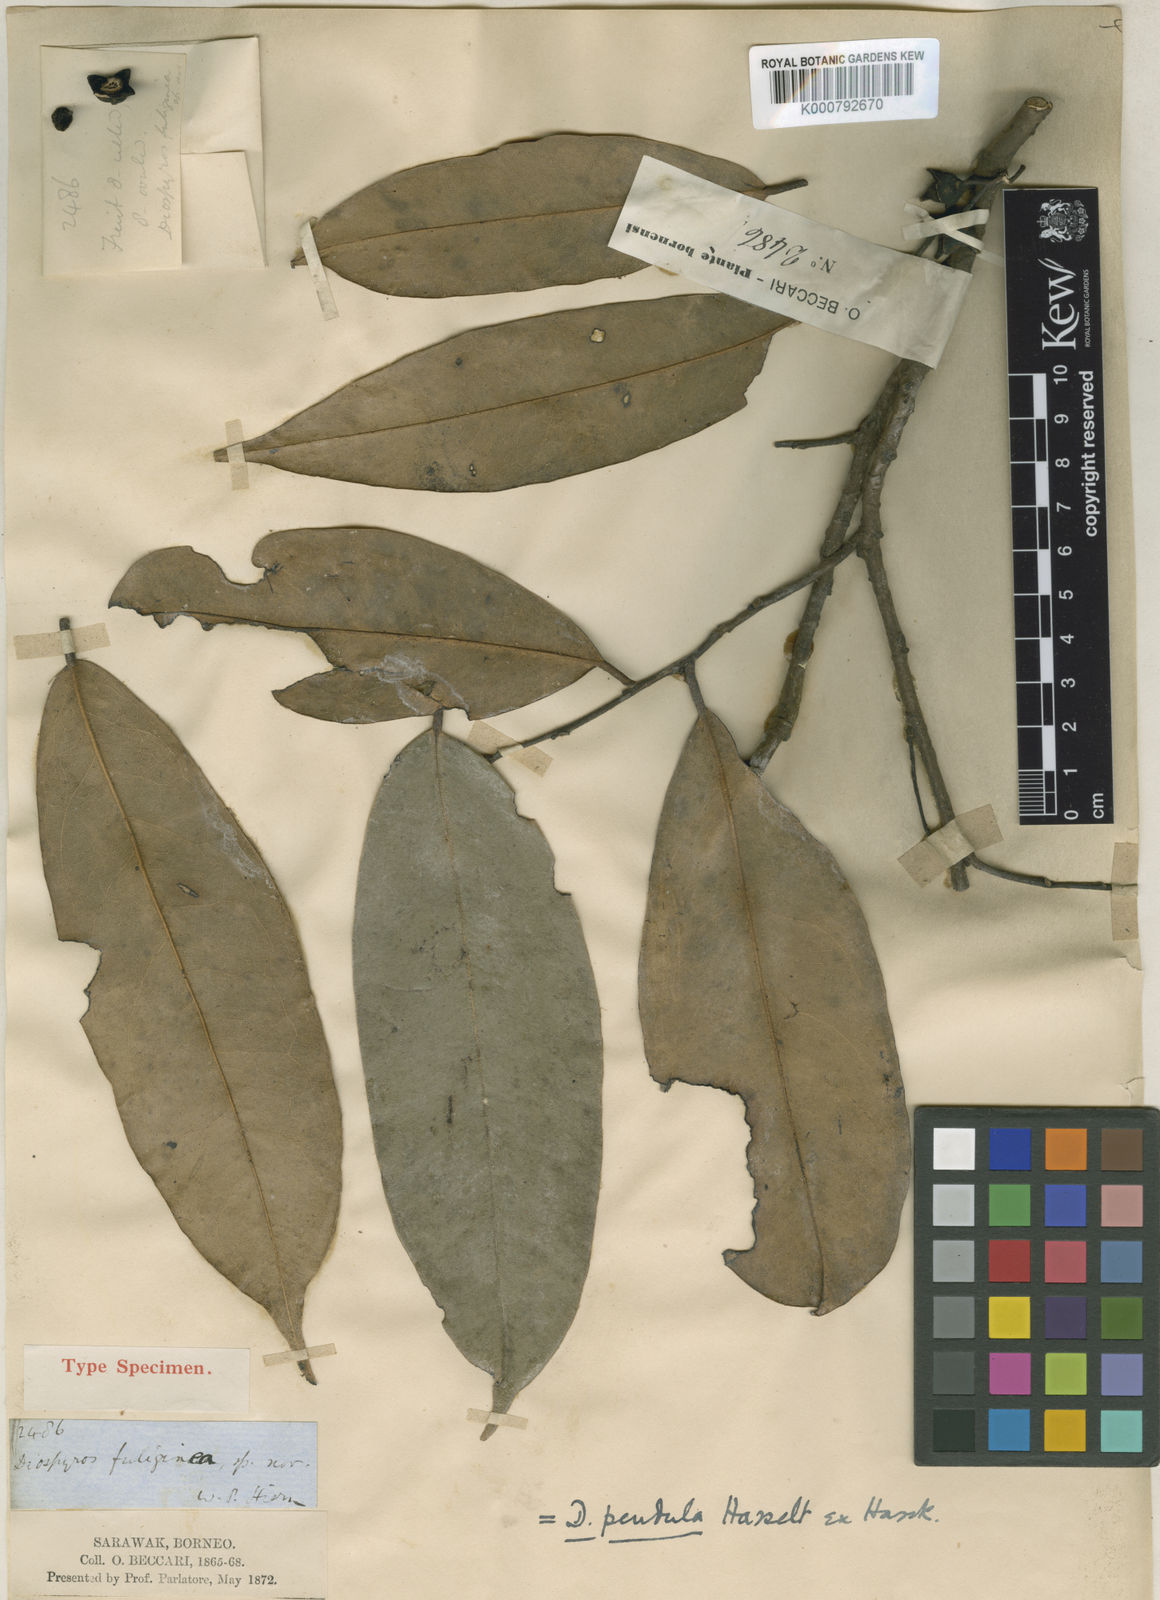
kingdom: Plantae
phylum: Tracheophyta
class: Magnoliopsida
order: Ericales
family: Ebenaceae
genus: Diospyros
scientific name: Diospyros pendula
